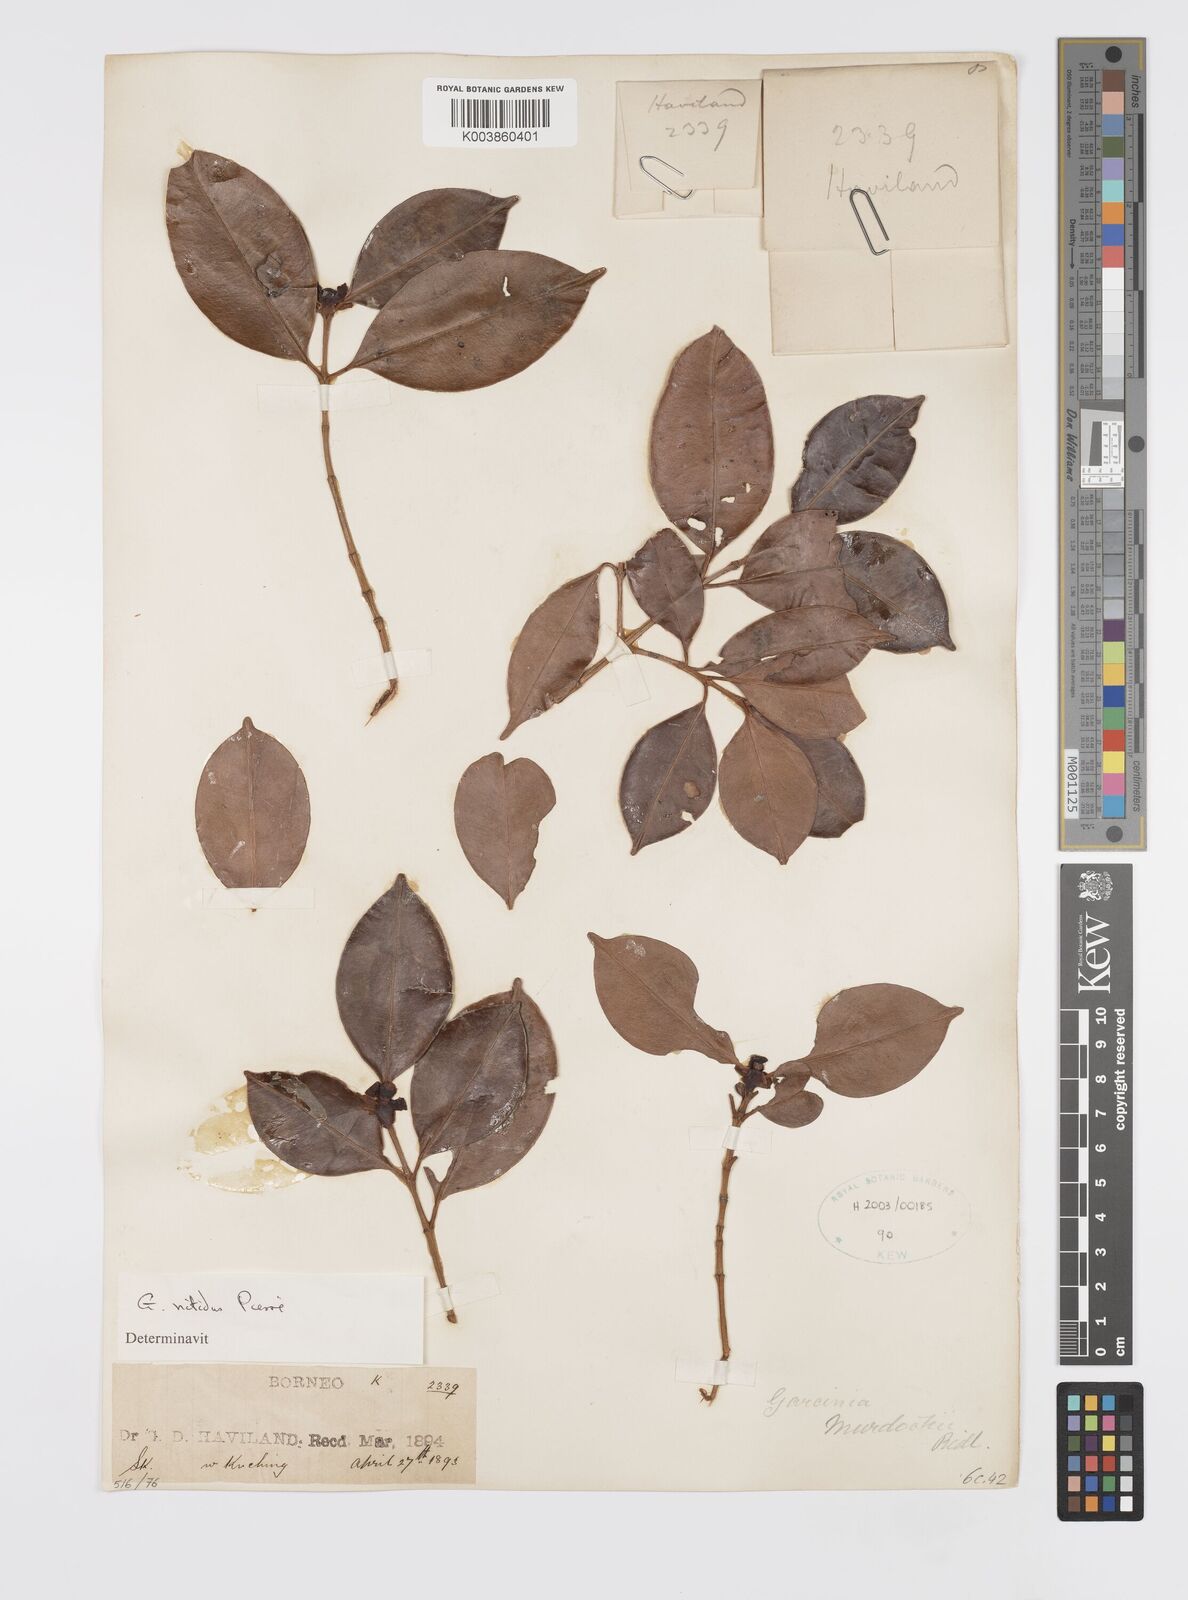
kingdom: Plantae
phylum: Tracheophyta
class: Magnoliopsida
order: Malpighiales
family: Clusiaceae
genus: Garcinia
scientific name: Garcinia nitida
